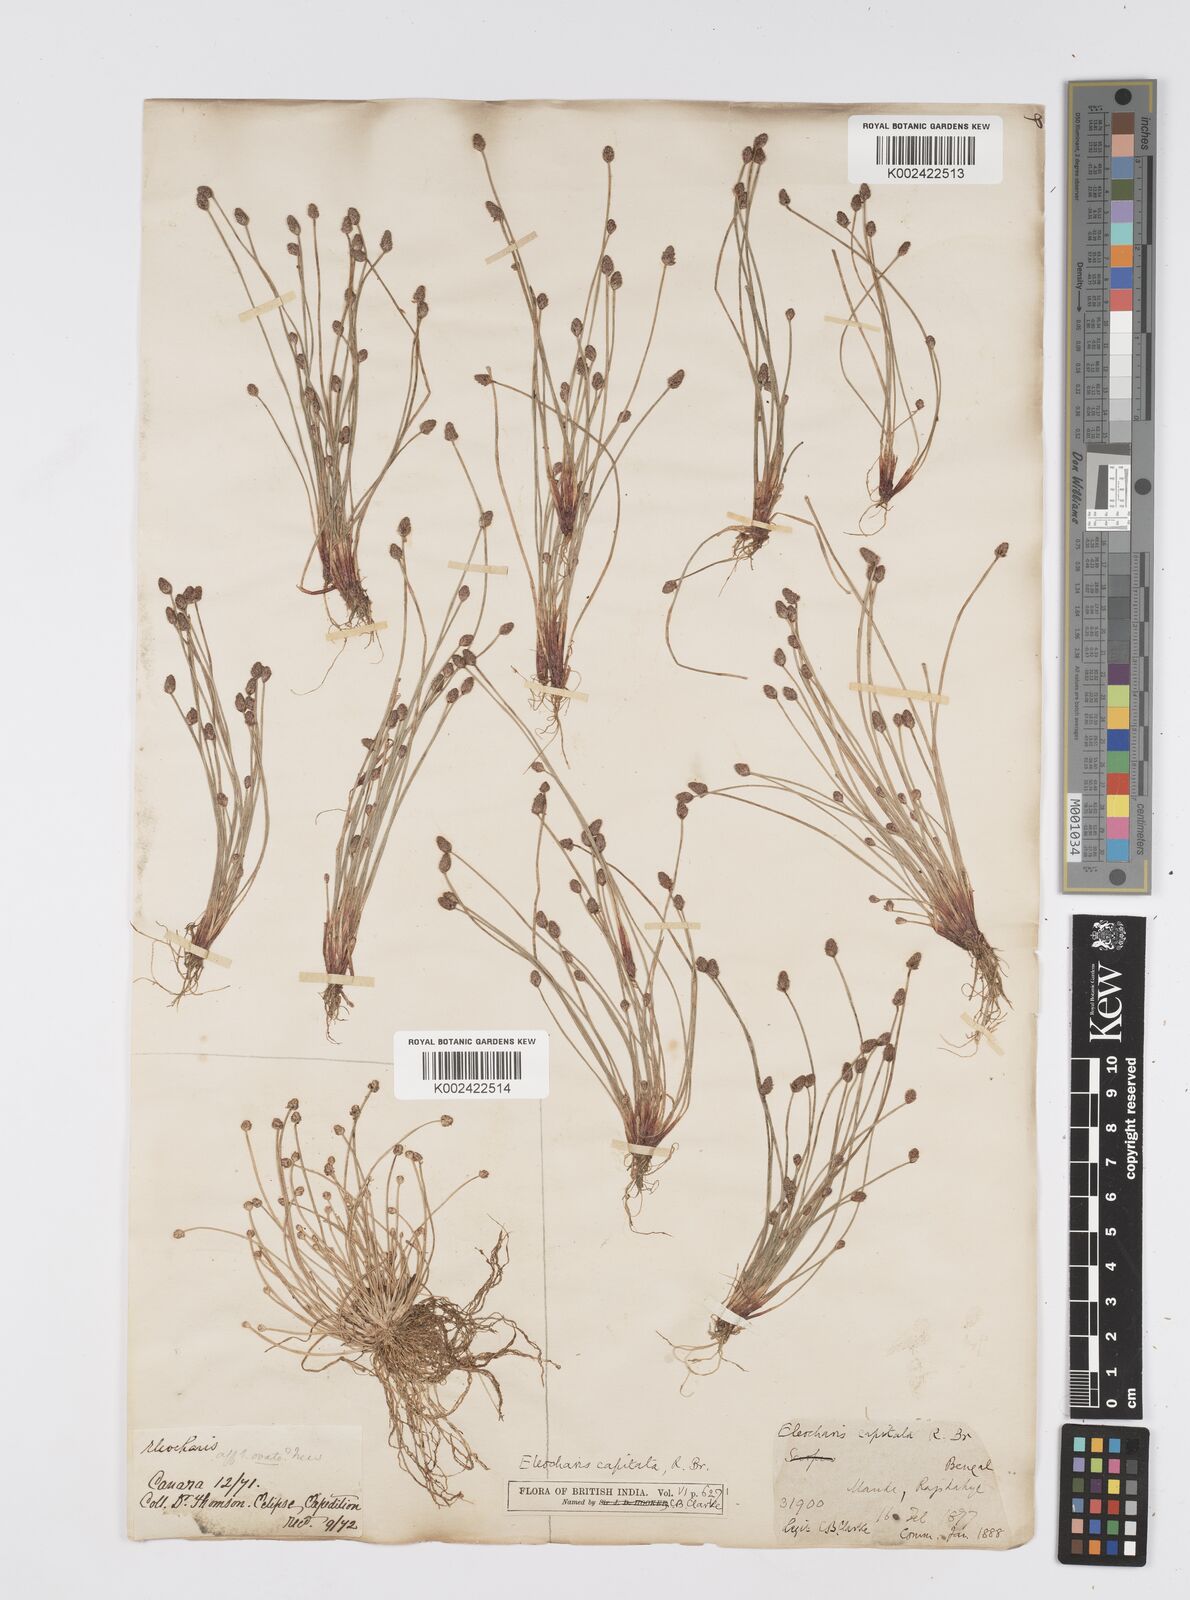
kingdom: Plantae
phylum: Tracheophyta
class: Liliopsida
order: Poales
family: Cyperaceae
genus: Eleocharis
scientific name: Eleocharis geniculata
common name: Canada spikesedge
